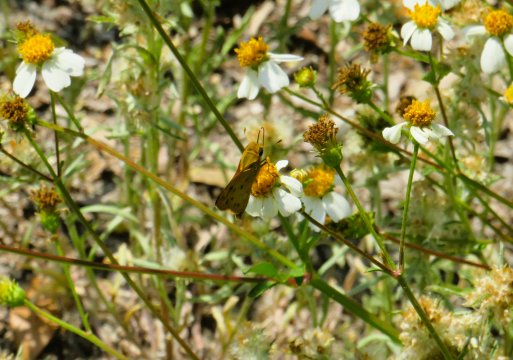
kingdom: Animalia
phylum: Arthropoda
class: Insecta
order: Lepidoptera
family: Hesperiidae
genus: Hylephila
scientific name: Hylephila phyleus
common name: Fiery Skipper
